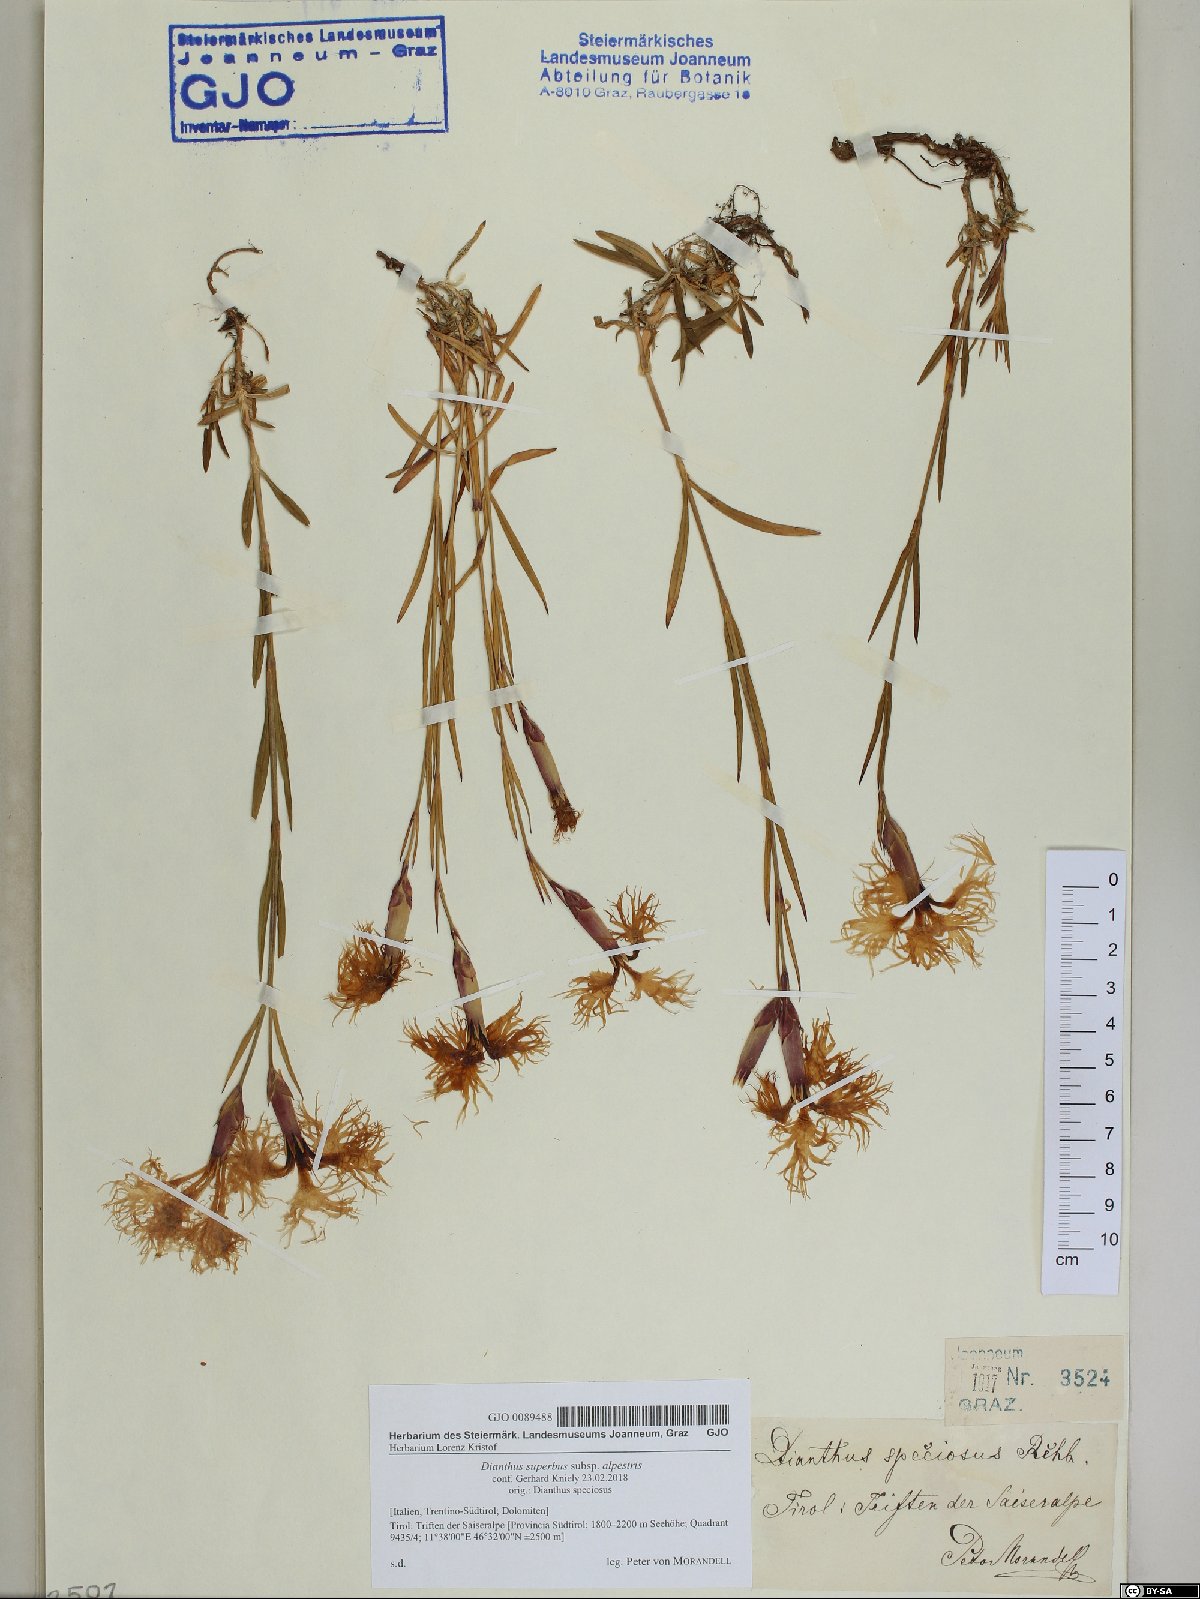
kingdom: Plantae
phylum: Tracheophyta
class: Magnoliopsida
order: Caryophyllales
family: Caryophyllaceae
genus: Dianthus
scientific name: Dianthus superbus
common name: Fringed pink
